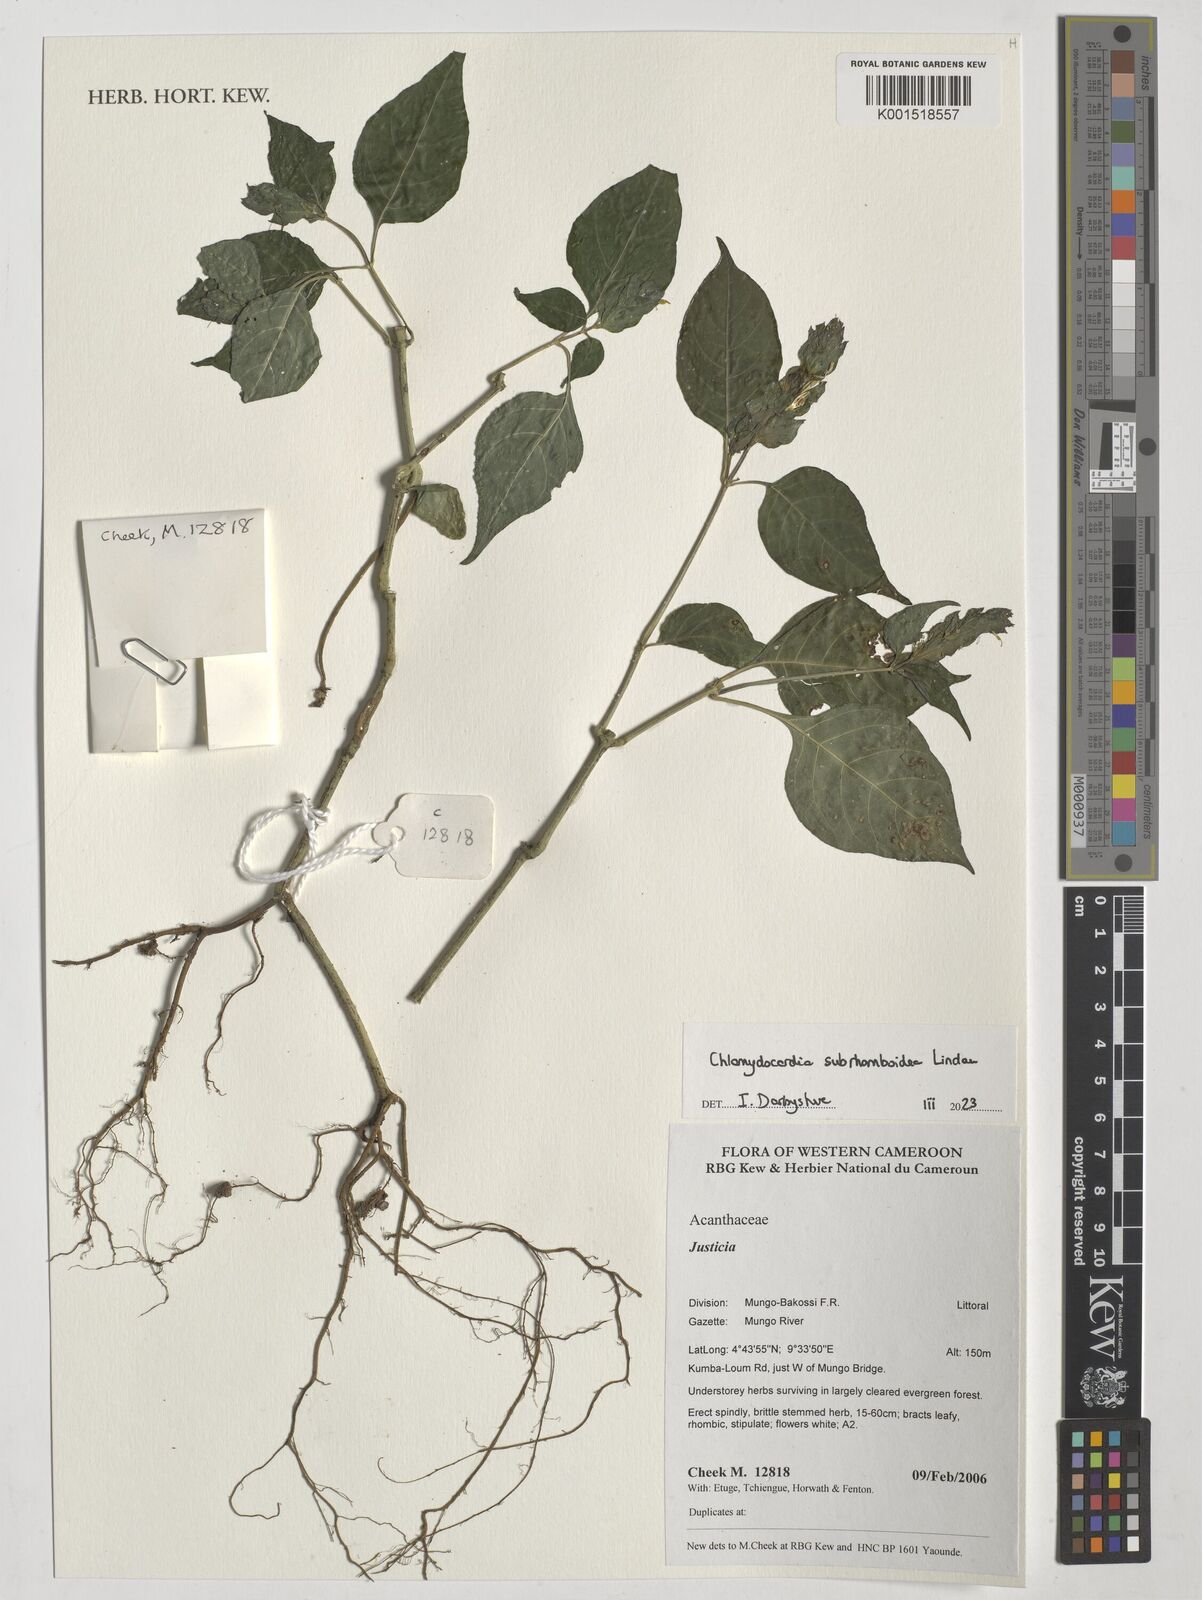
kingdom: Plantae
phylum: Tracheophyta
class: Magnoliopsida
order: Lamiales
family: Acanthaceae
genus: Chlamydocardia
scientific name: Chlamydocardia subrhomboidea
